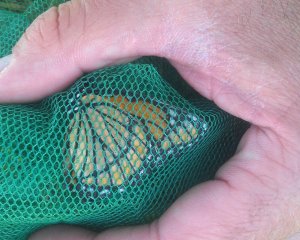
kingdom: Animalia
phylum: Arthropoda
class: Insecta
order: Lepidoptera
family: Nymphalidae
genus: Limenitis
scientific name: Limenitis archippus
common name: Viceroy
